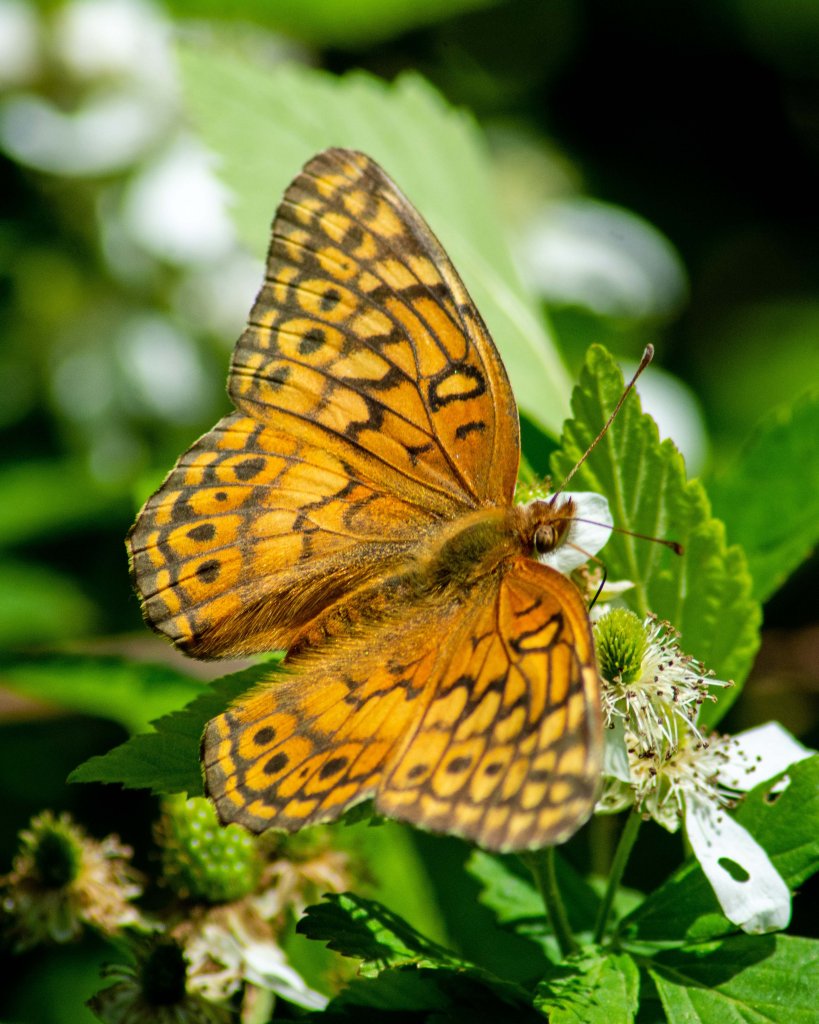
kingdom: Animalia
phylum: Arthropoda
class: Insecta
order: Lepidoptera
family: Nymphalidae
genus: Euptoieta
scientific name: Euptoieta claudia
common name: Variegated Fritillary
